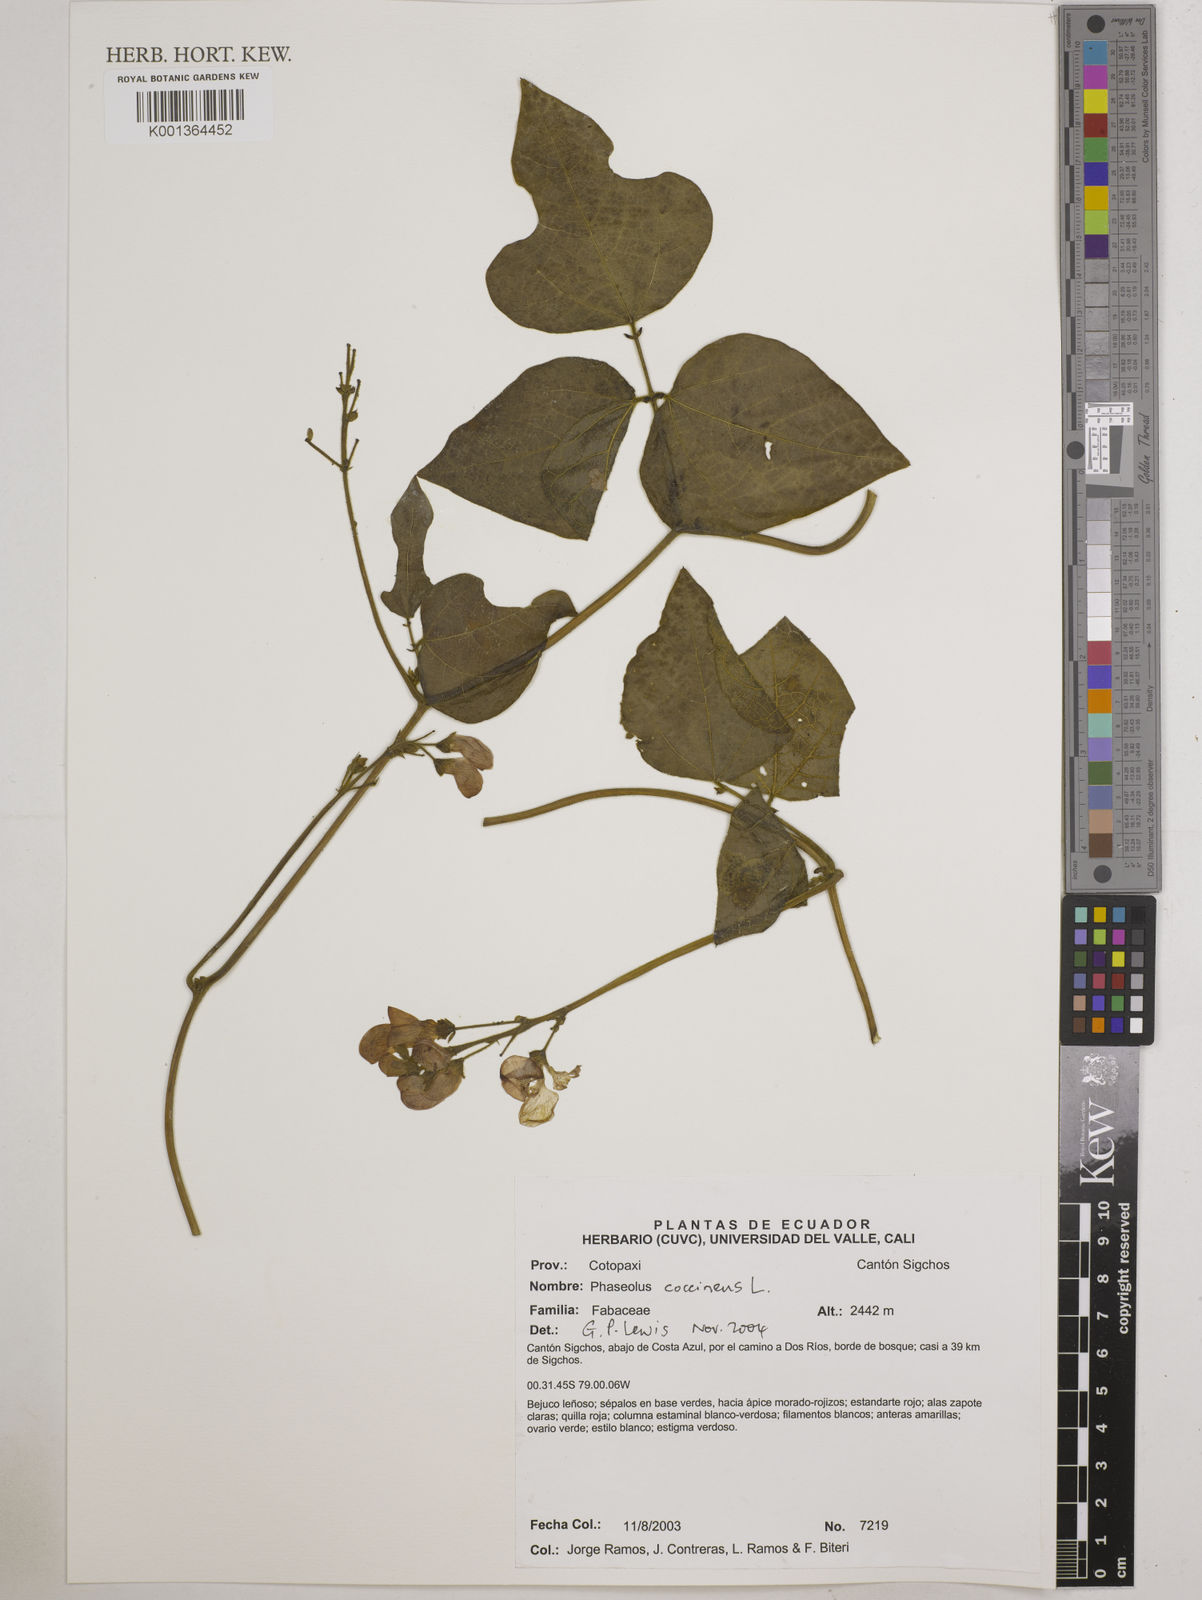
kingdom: Plantae
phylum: Tracheophyta
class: Magnoliopsida
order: Fabales
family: Fabaceae
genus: Phaseolus
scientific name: Phaseolus coccineus
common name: Runner bean
